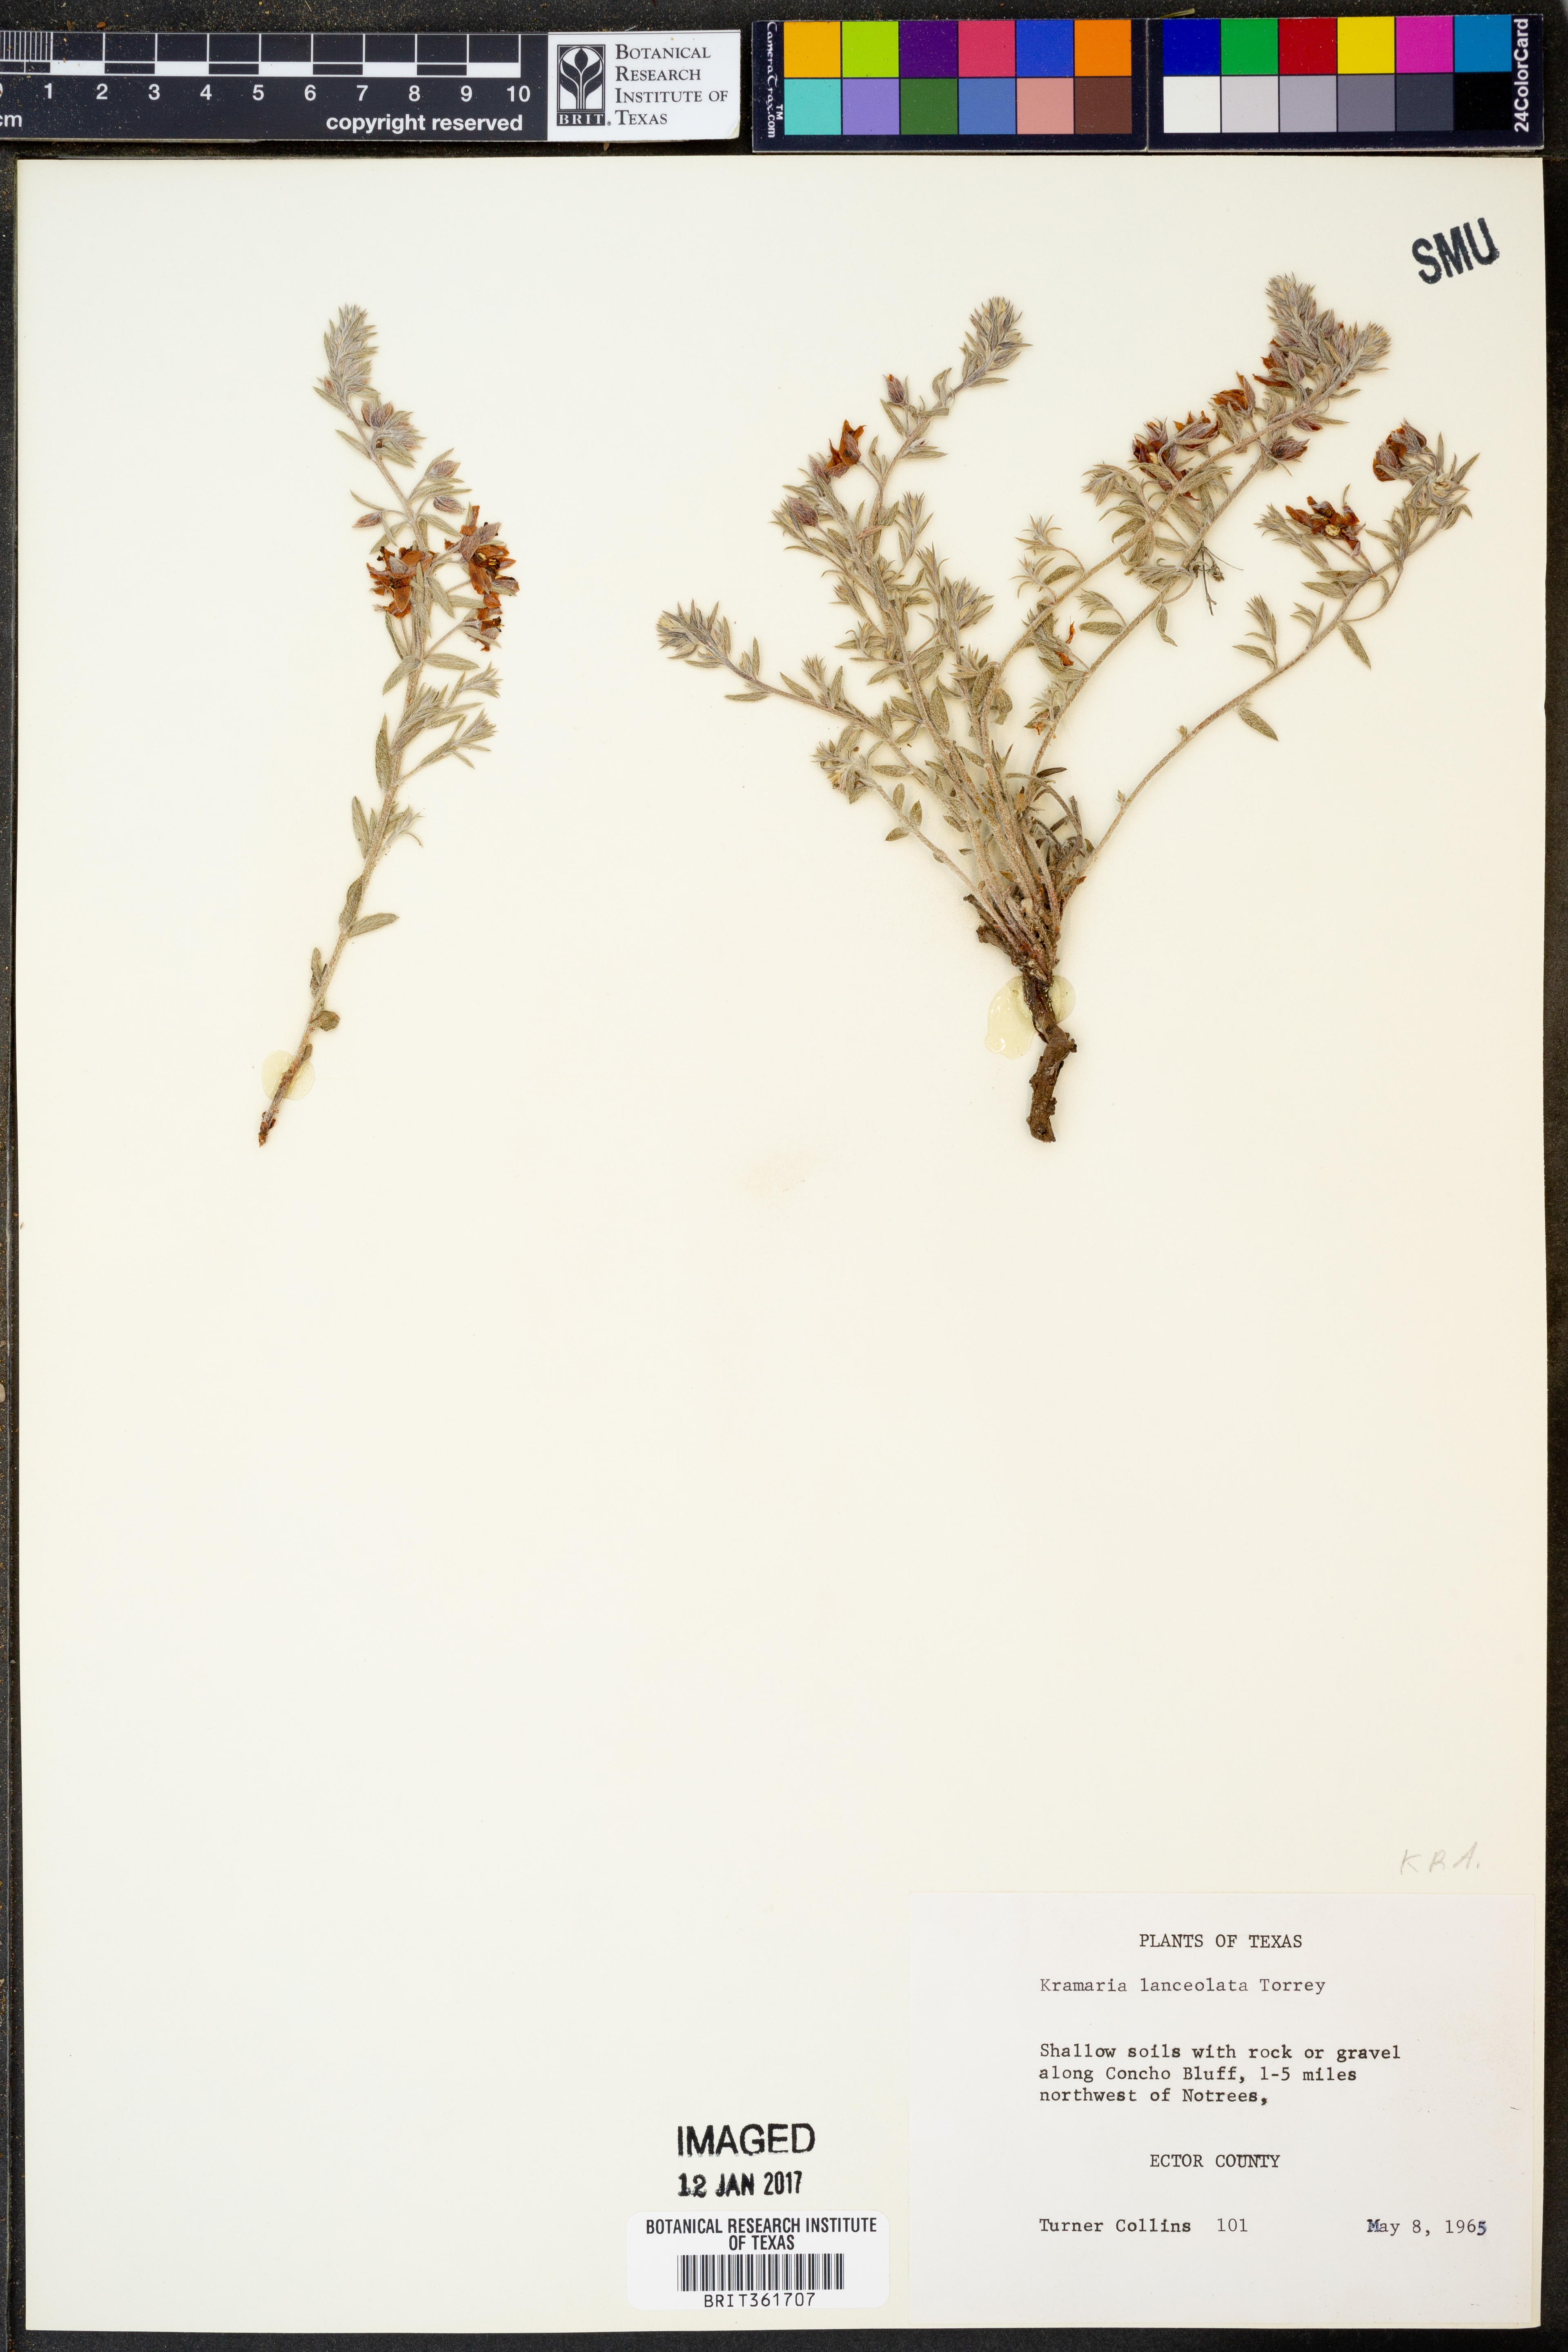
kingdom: Plantae
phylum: Tracheophyta
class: Magnoliopsida
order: Zygophyllales
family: Krameriaceae
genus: Krameria
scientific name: Krameria lanceolata
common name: Ratany
